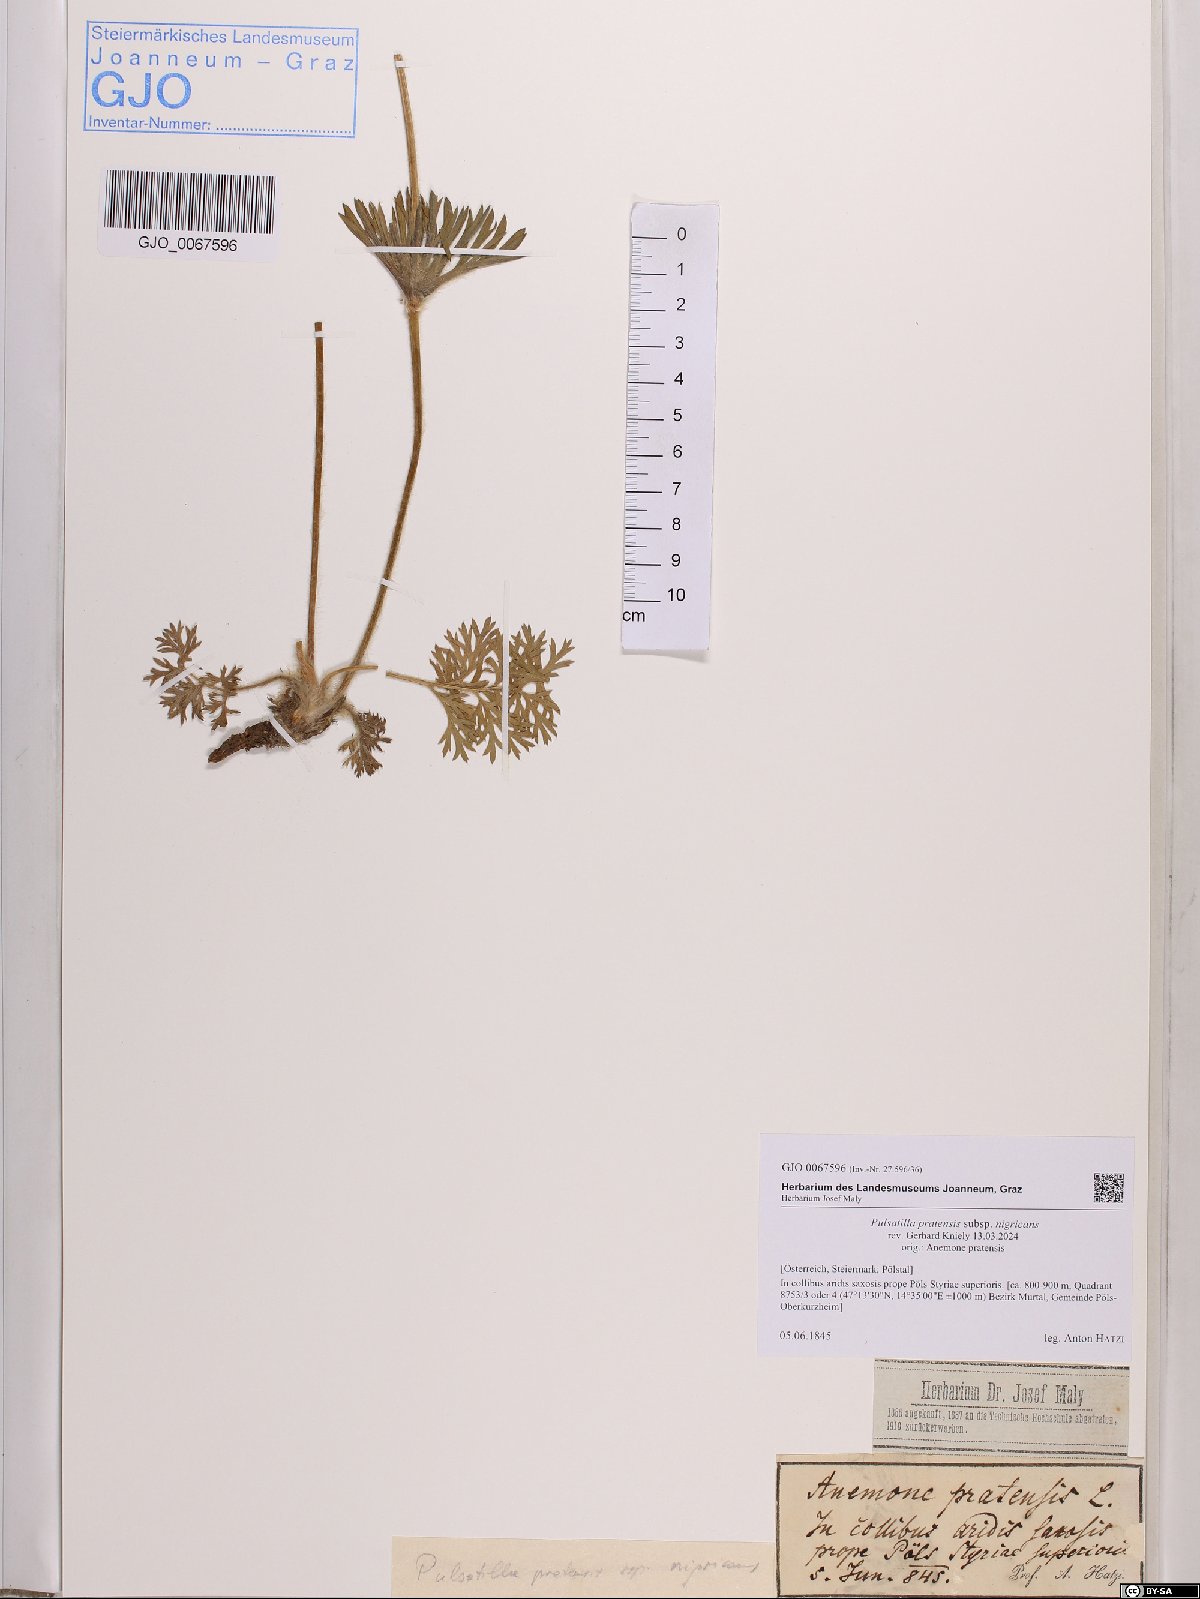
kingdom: Plantae
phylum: Tracheophyta
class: Magnoliopsida
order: Ranunculales
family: Ranunculaceae
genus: Pulsatilla
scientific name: Pulsatilla pratensis
